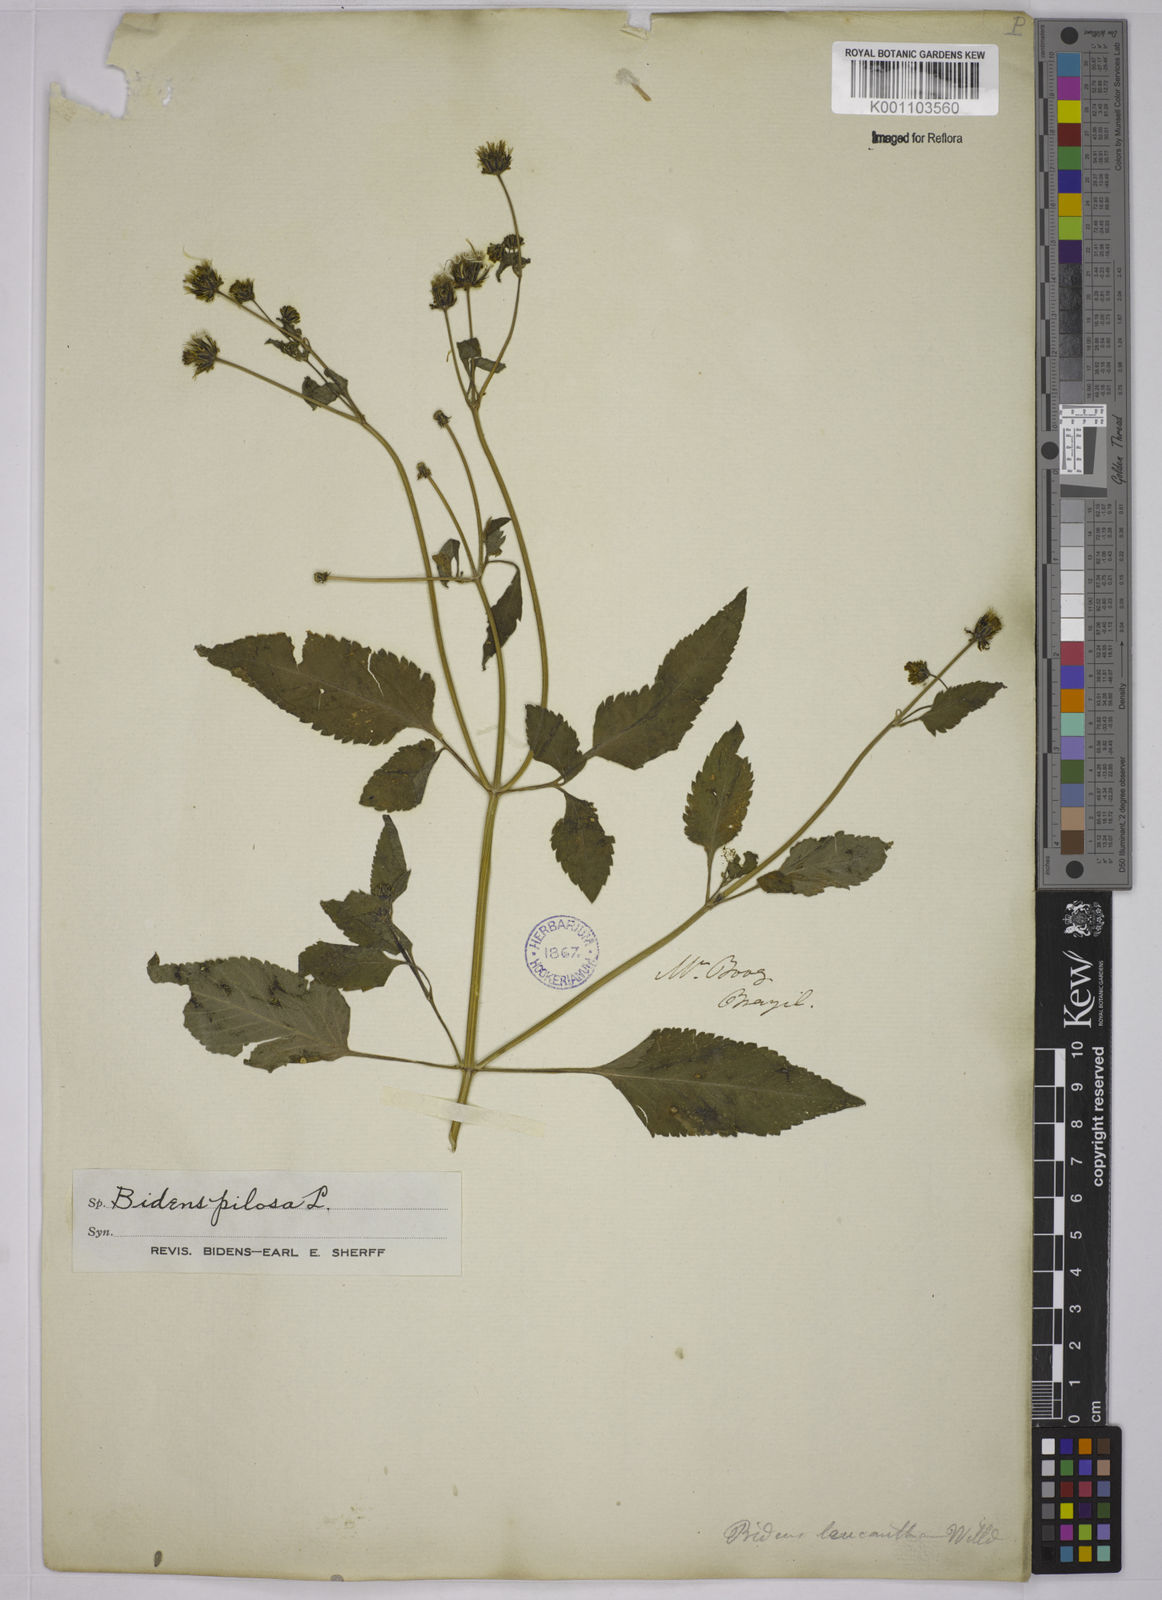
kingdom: Plantae
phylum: Tracheophyta
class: Magnoliopsida
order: Asterales
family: Asteraceae
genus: Bidens
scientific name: Bidens pilosa
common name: Black-jack
